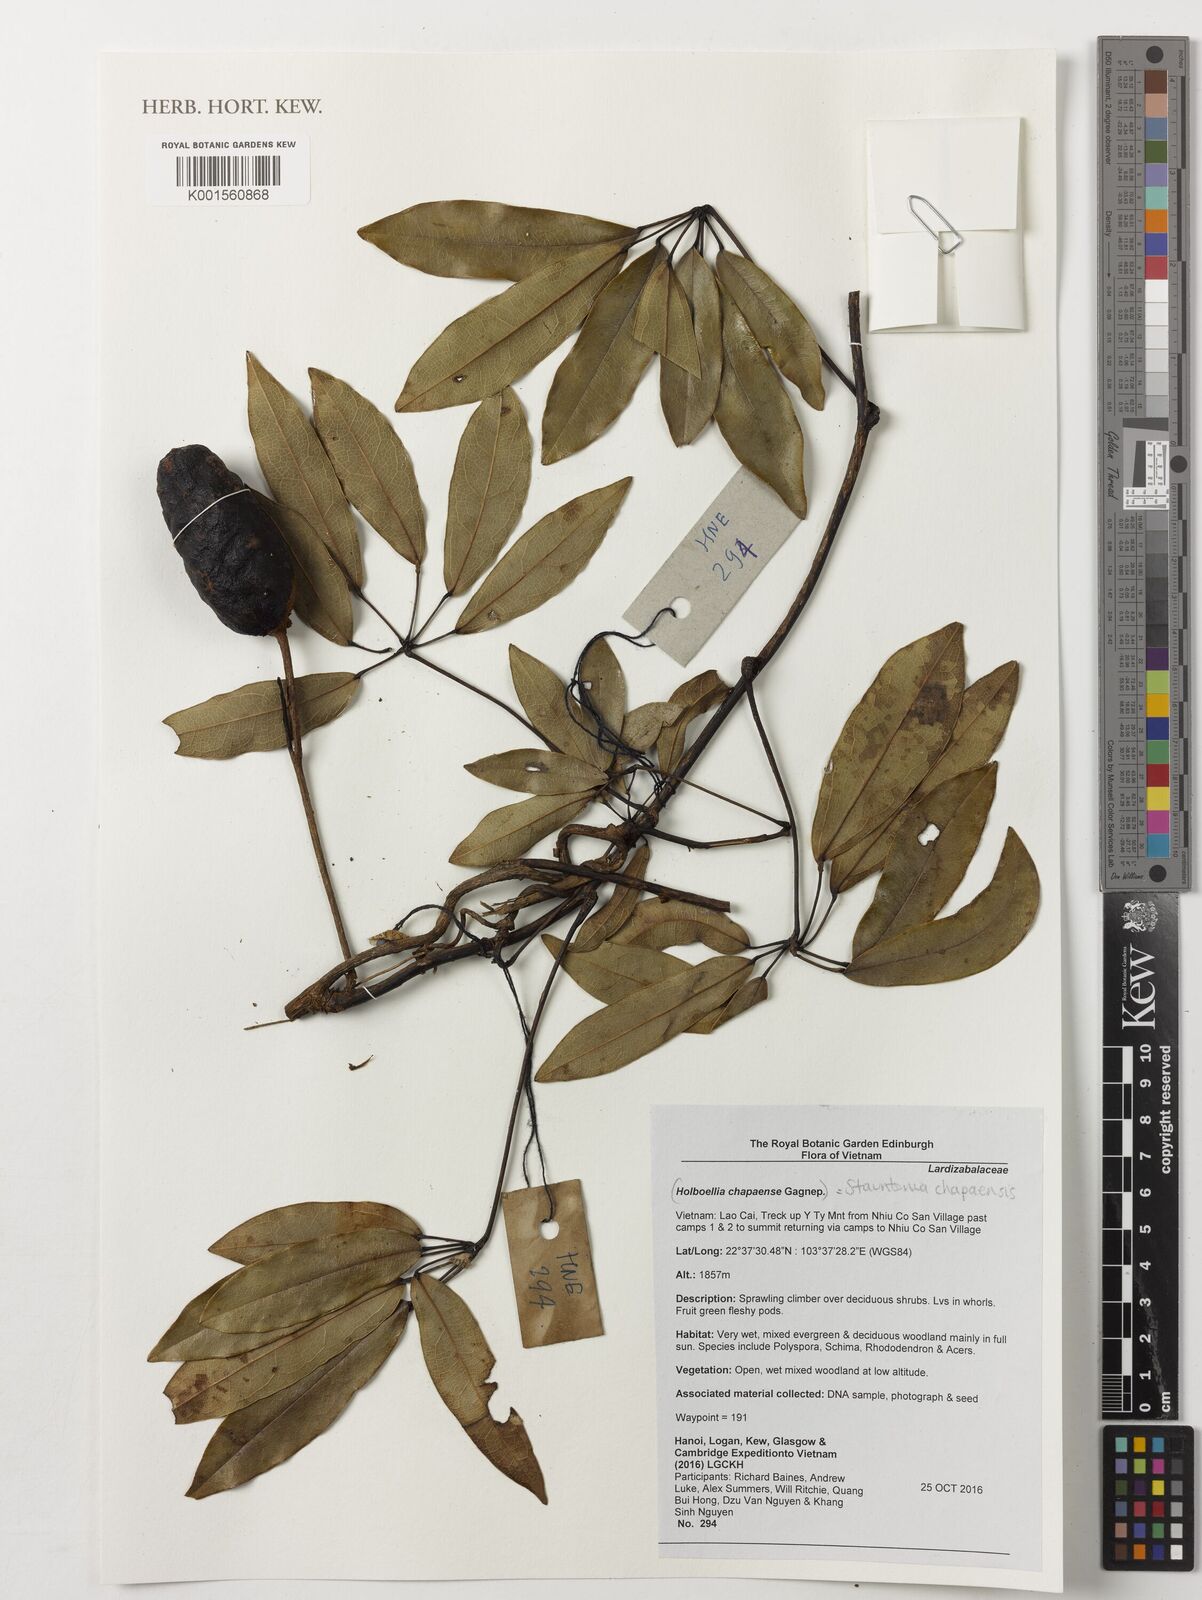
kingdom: Plantae
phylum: Tracheophyta
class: Magnoliopsida
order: Ranunculales
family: Lardizabalaceae
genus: Stauntonia
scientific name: Stauntonia chapaensis
